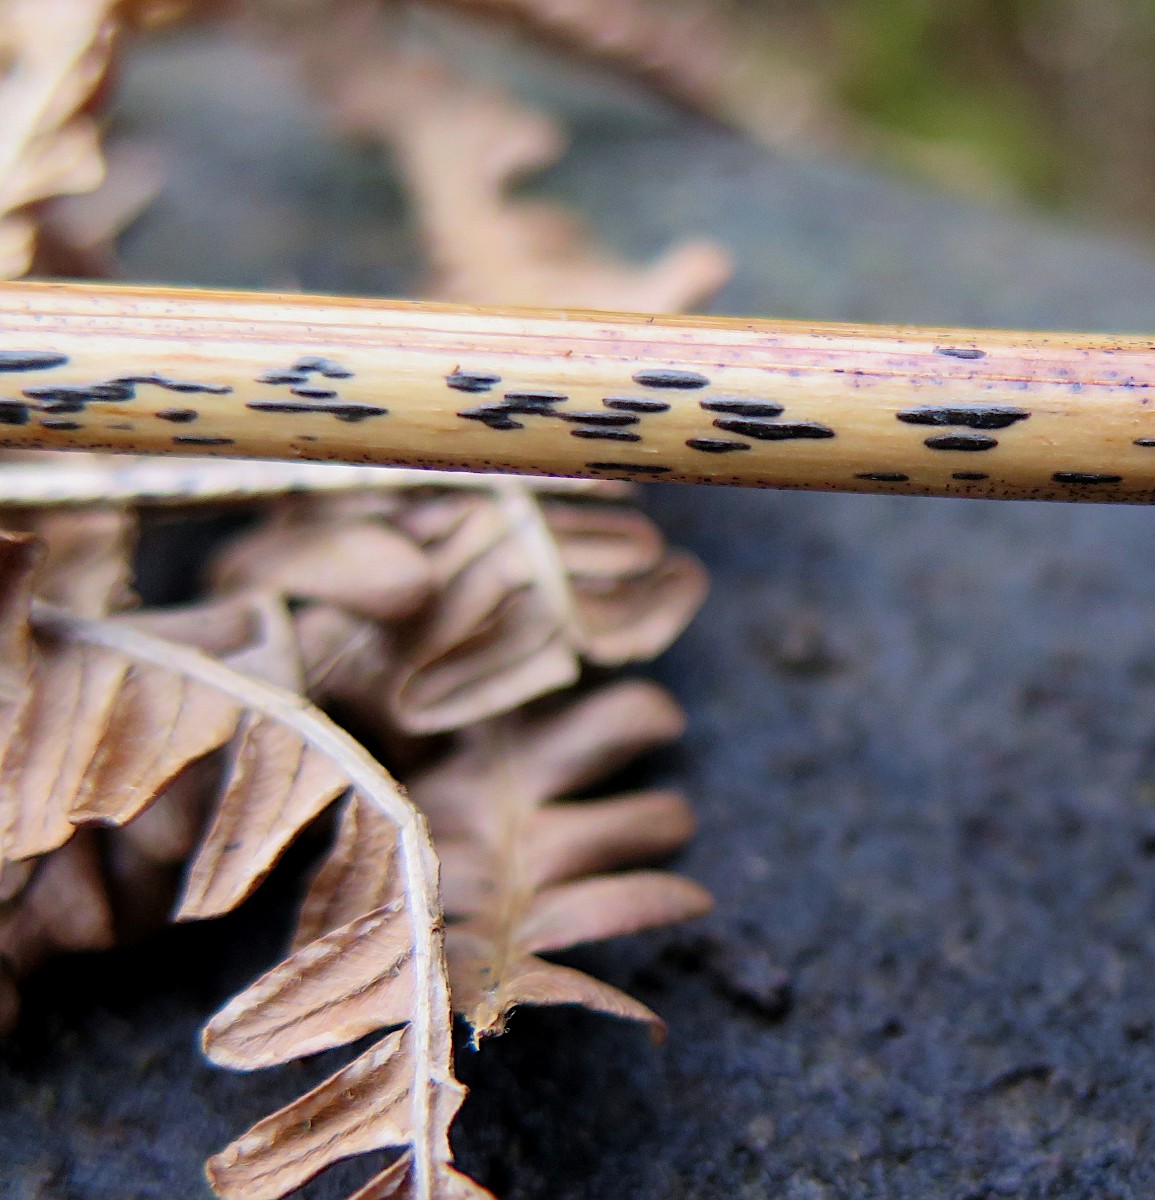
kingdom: Fungi
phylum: Ascomycota
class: Dothideomycetes
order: Pleosporales
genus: Rhopographus
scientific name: Rhopographus filicinus
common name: Bracken map
